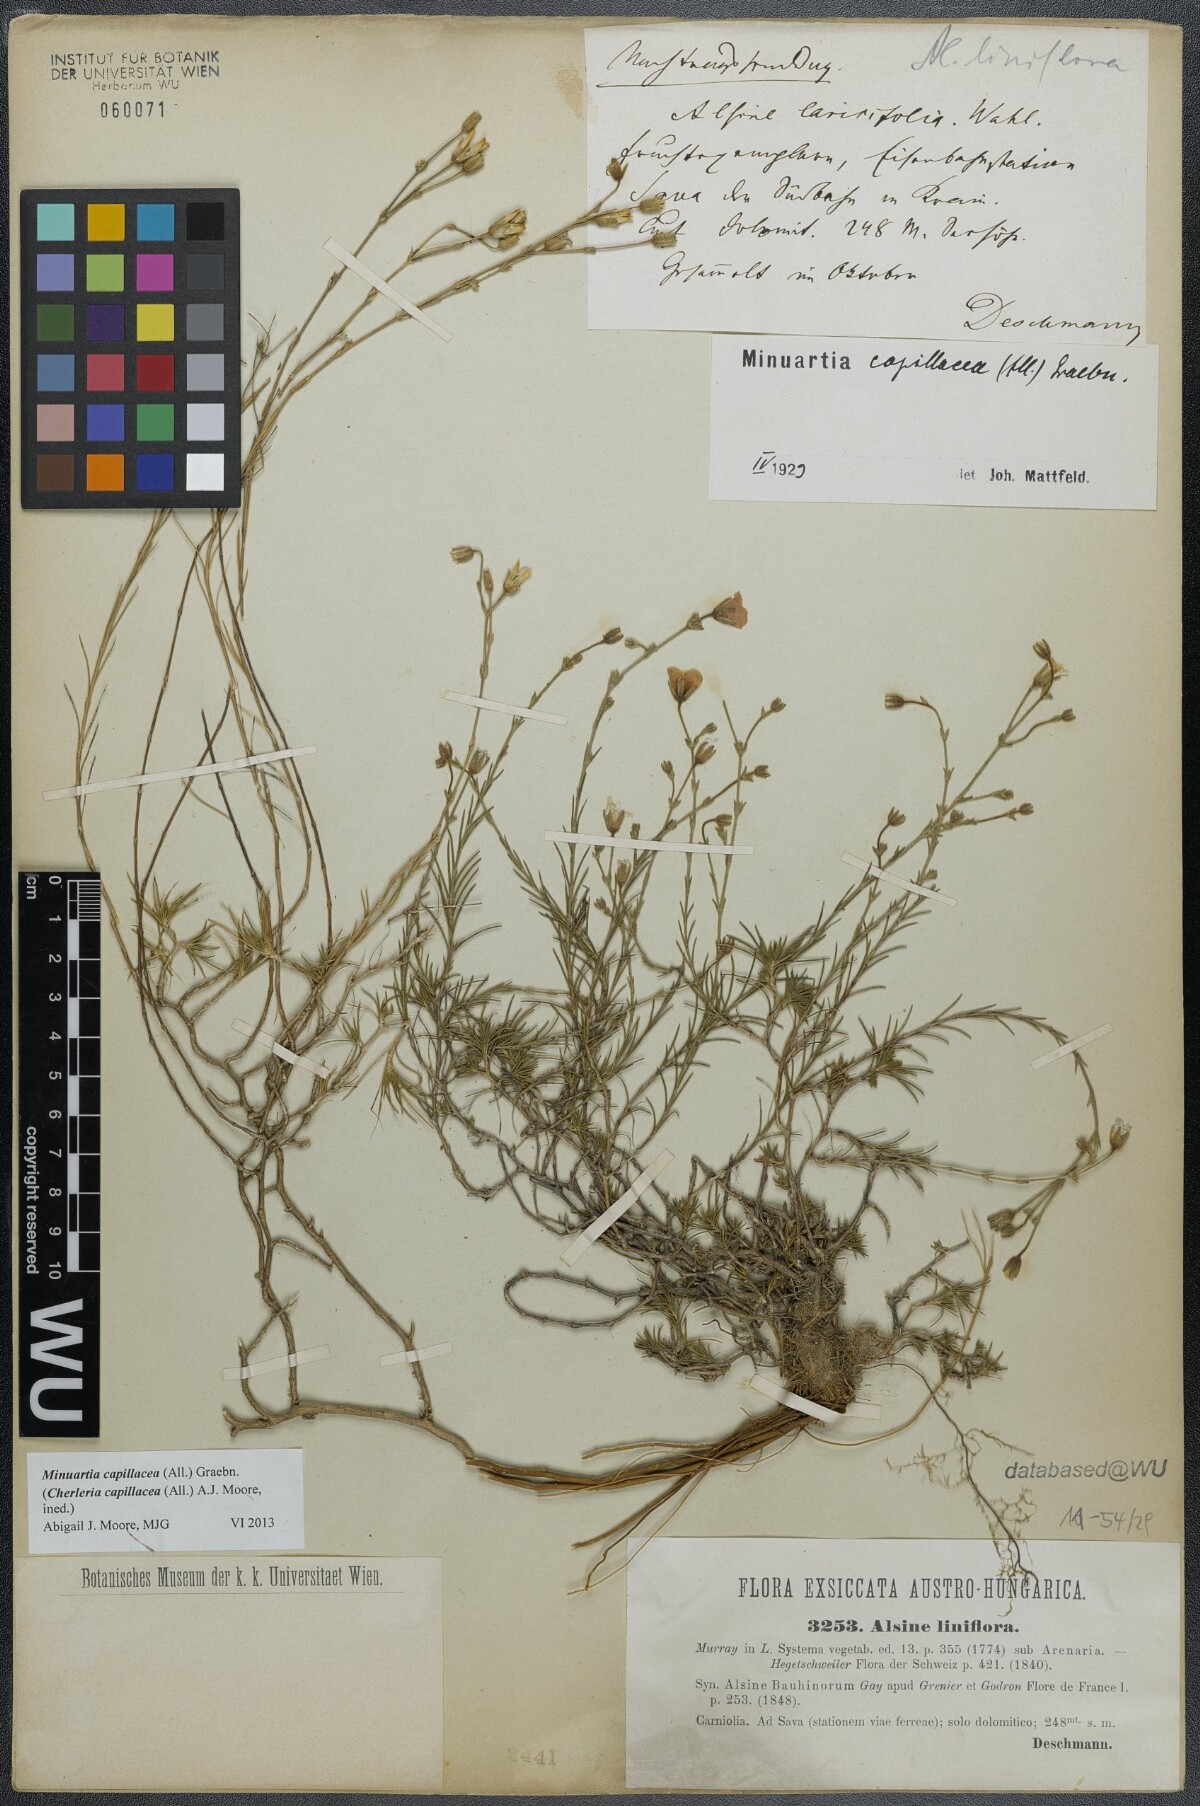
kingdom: Plantae
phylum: Tracheophyta
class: Magnoliopsida
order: Caryophyllales
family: Caryophyllaceae
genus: Cherleria
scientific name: Cherleria capillacea
